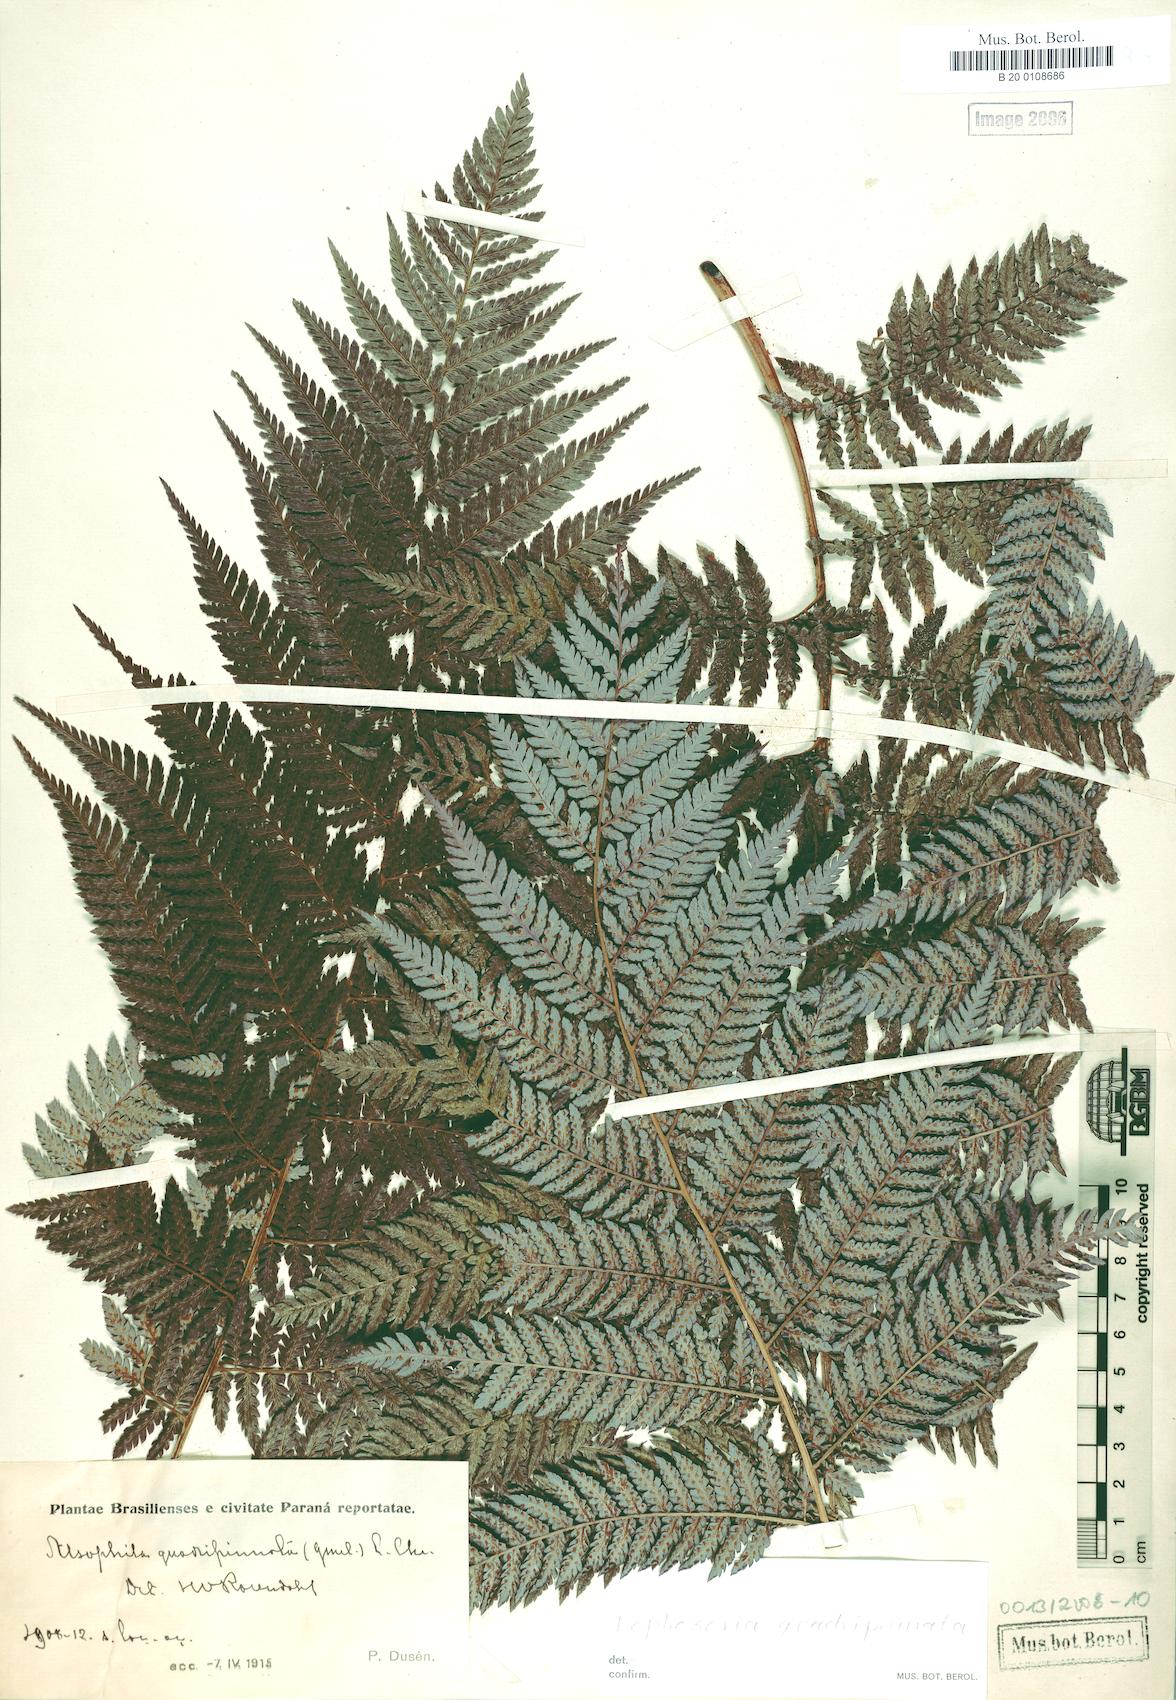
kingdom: Plantae
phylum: Tracheophyta
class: Polypodiopsida
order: Cyatheales
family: Dicksoniaceae
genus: Lophosoria
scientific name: Lophosoria quadripinnata
